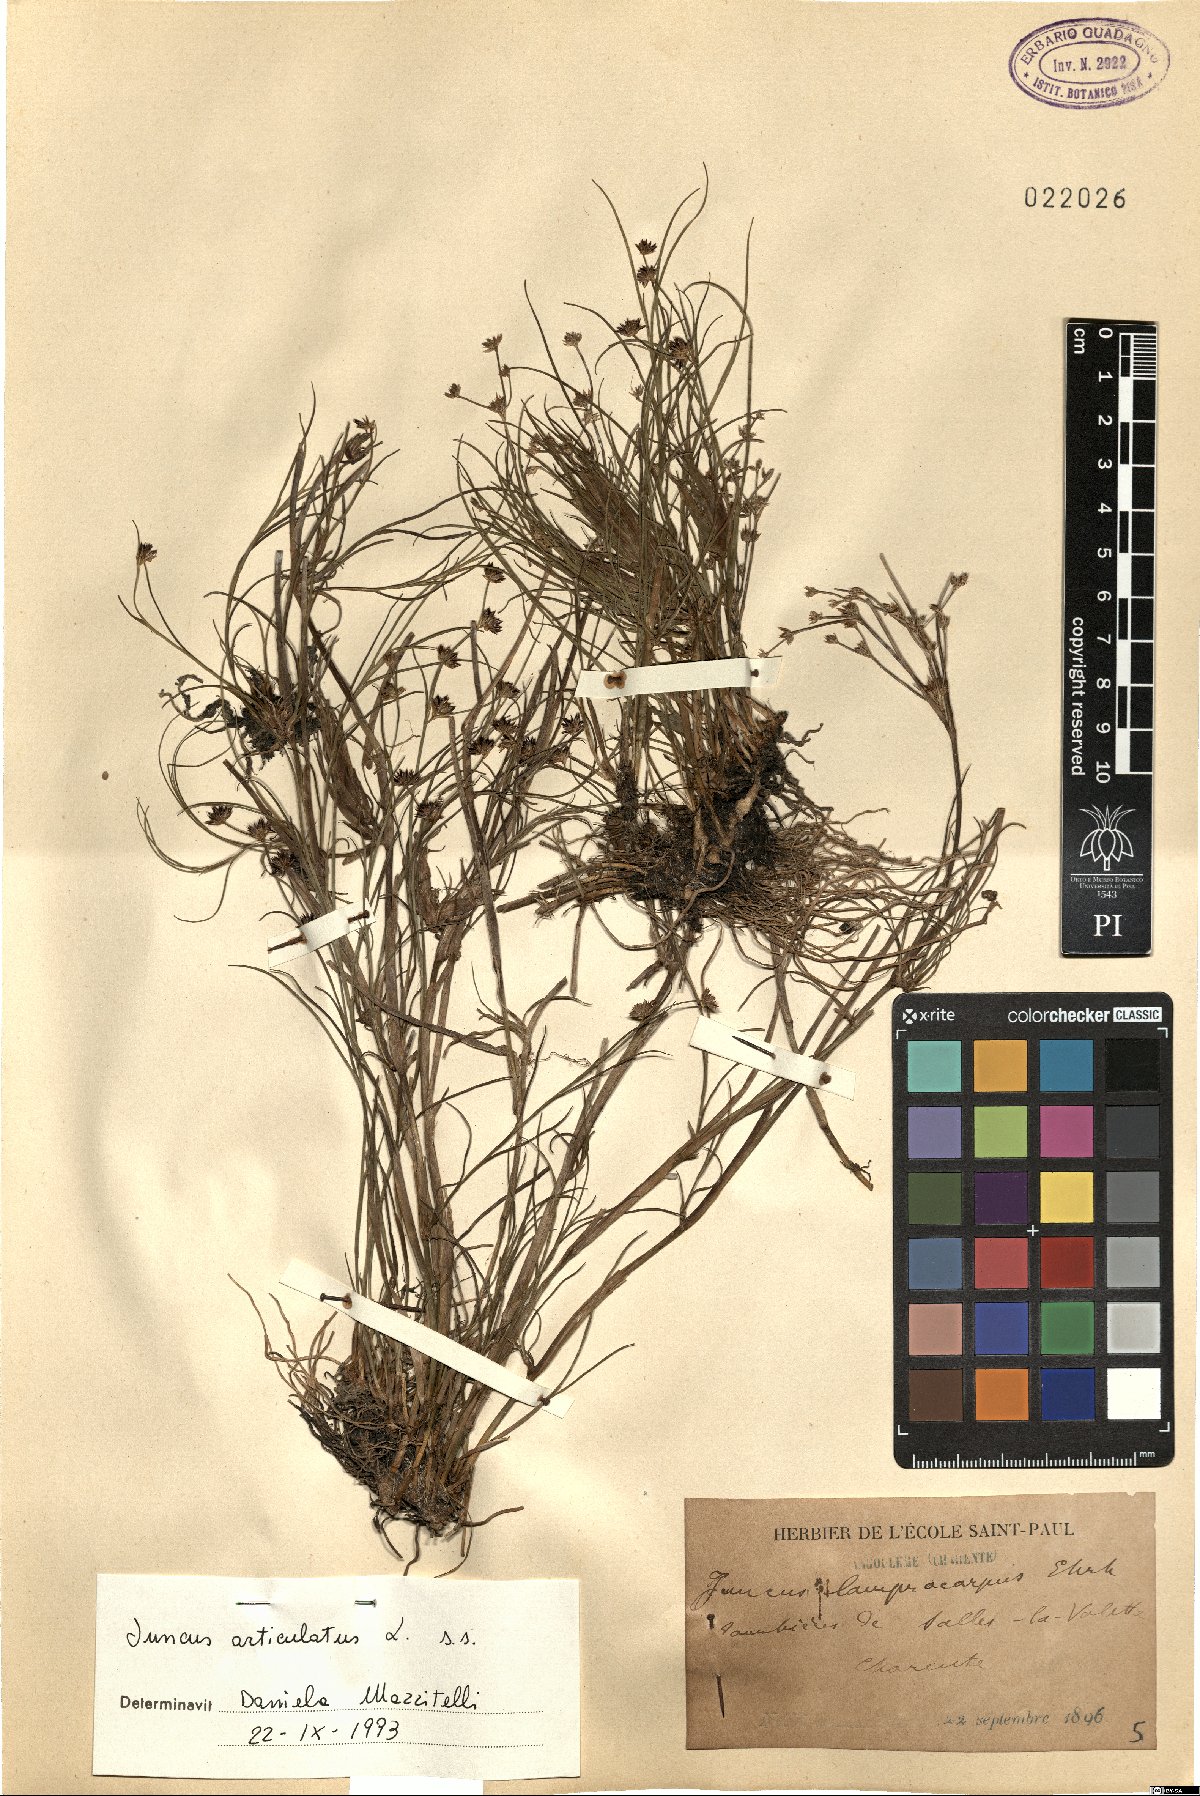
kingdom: Plantae
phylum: Tracheophyta
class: Liliopsida
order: Poales
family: Juncaceae
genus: Juncus
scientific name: Juncus articulatus
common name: Jointed rush
